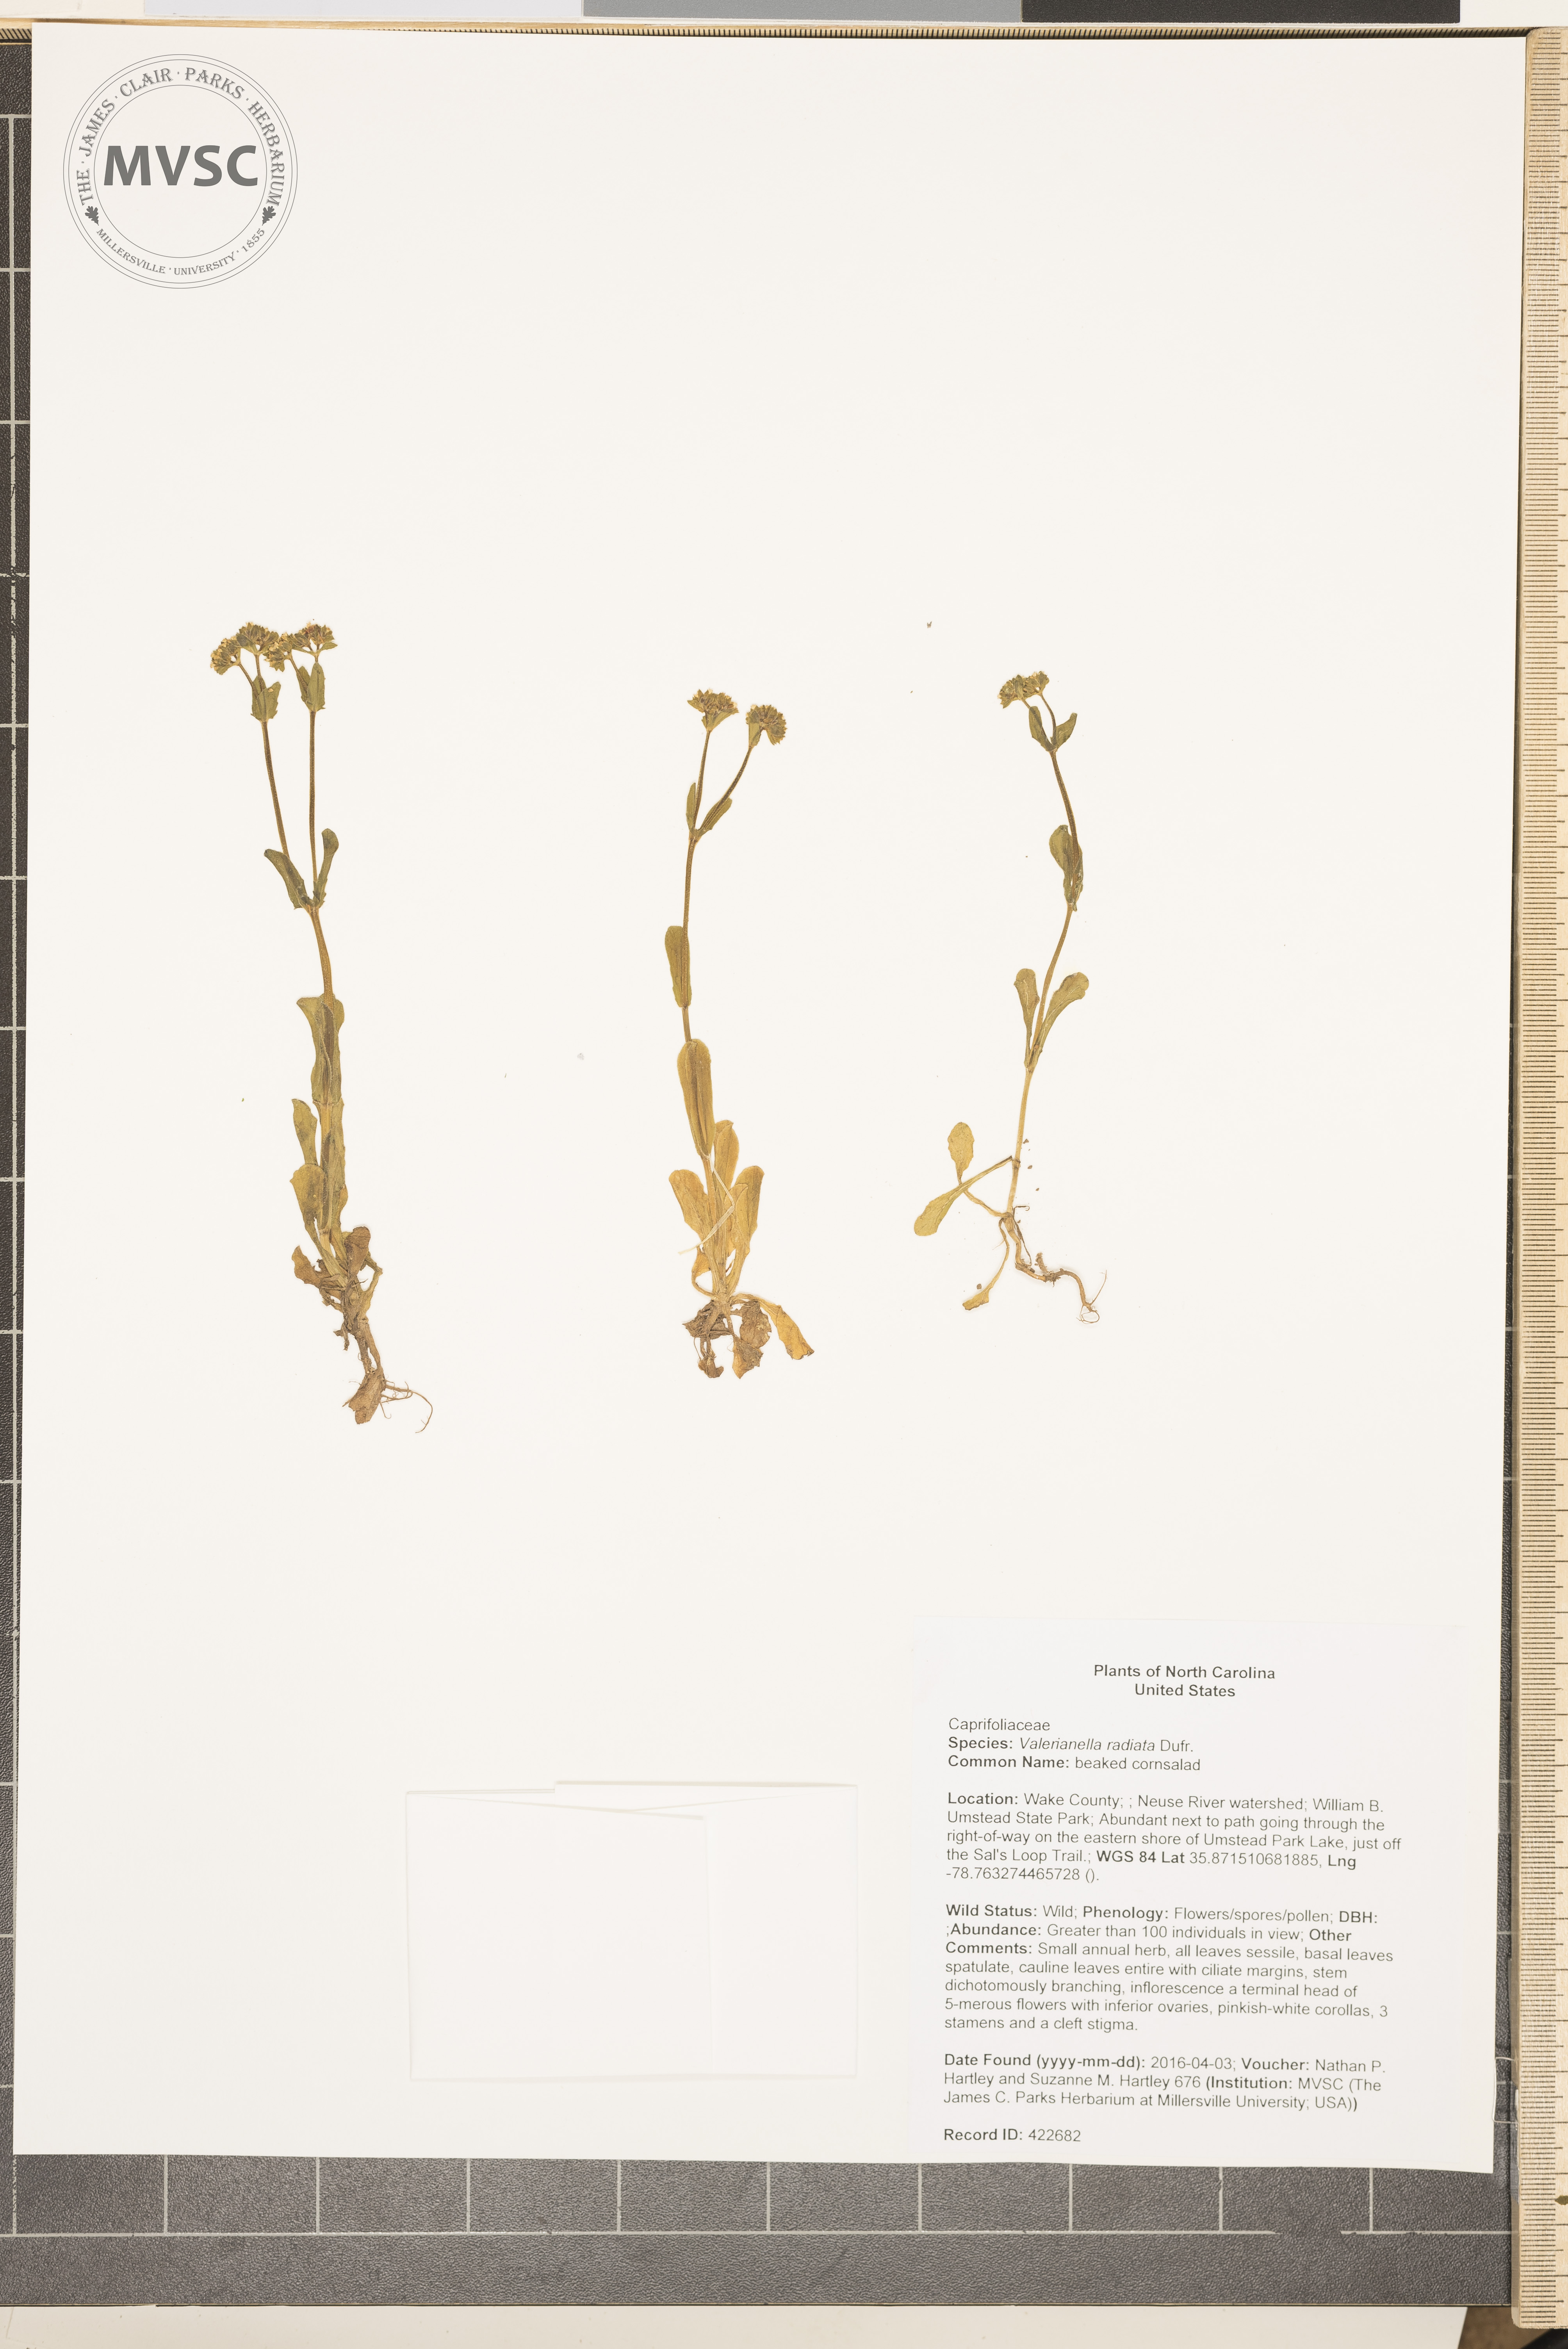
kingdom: Plantae
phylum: Tracheophyta
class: Magnoliopsida
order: Dipsacales
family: Caprifoliaceae
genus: Valerianella
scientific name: Valerianella radiata
